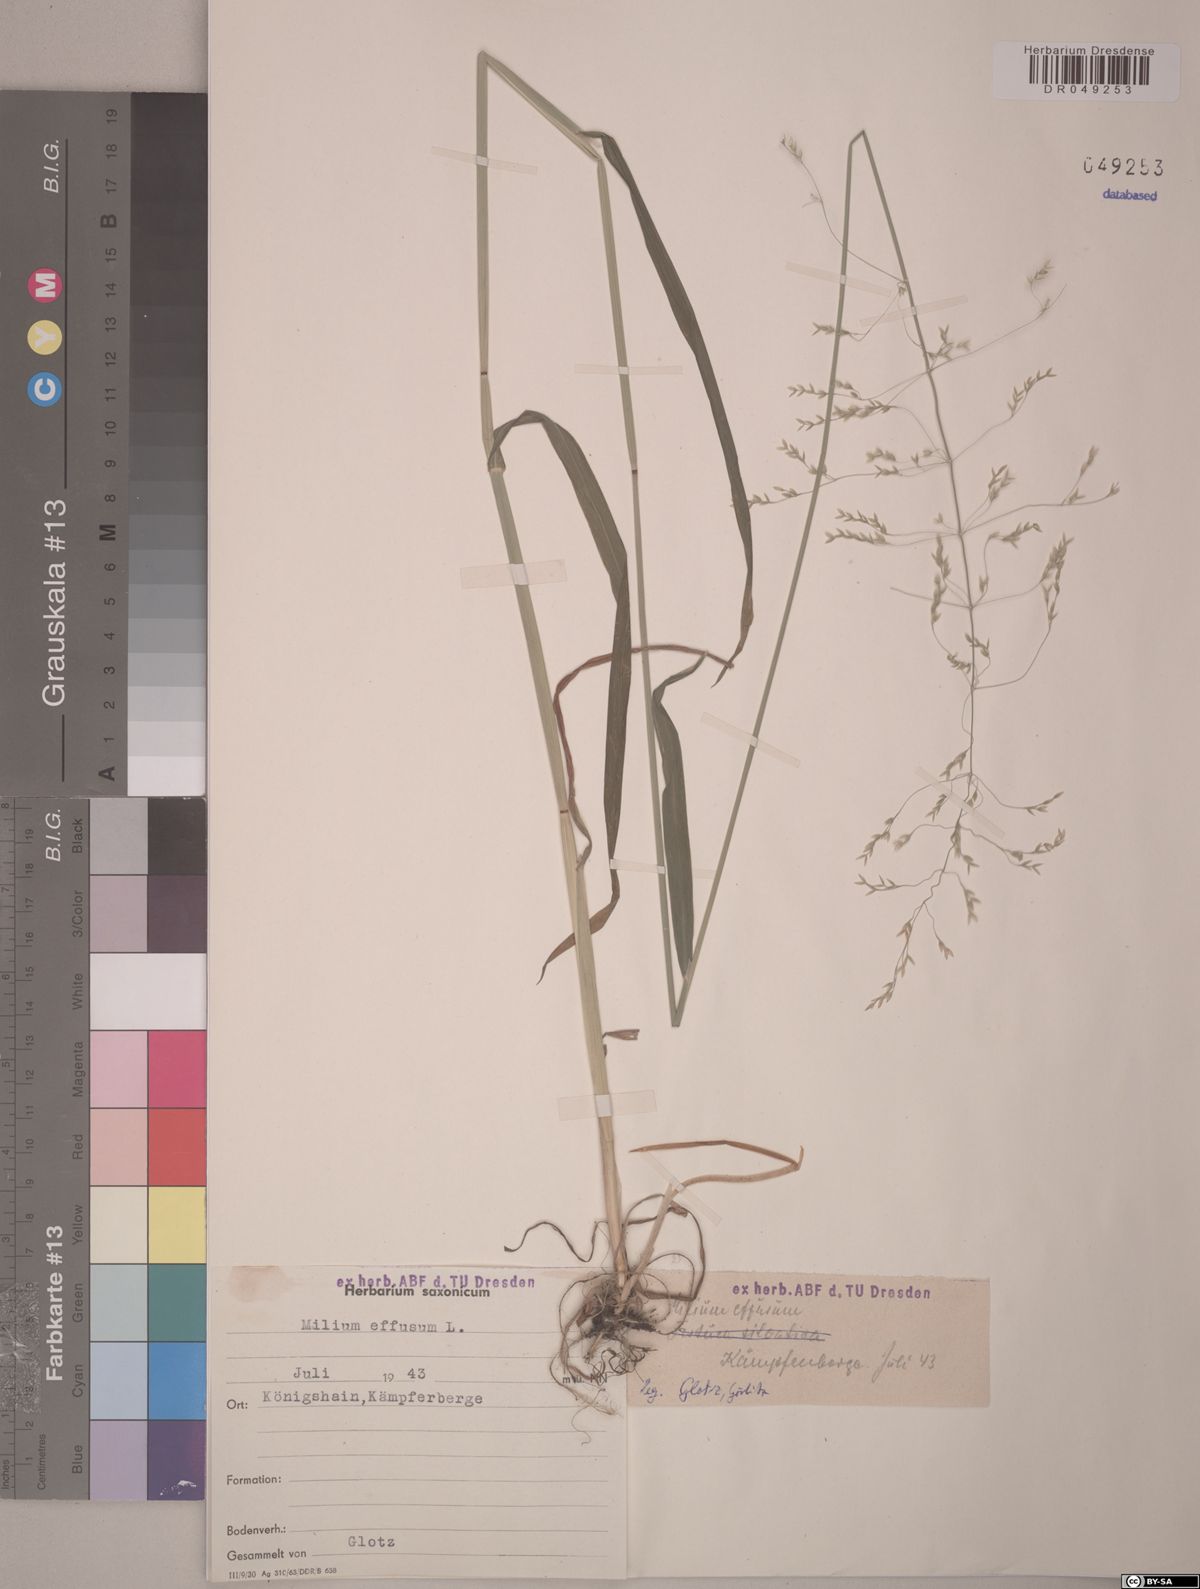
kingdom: Plantae
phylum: Tracheophyta
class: Liliopsida
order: Poales
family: Poaceae
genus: Milium
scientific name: Milium effusum
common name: Wood millet
